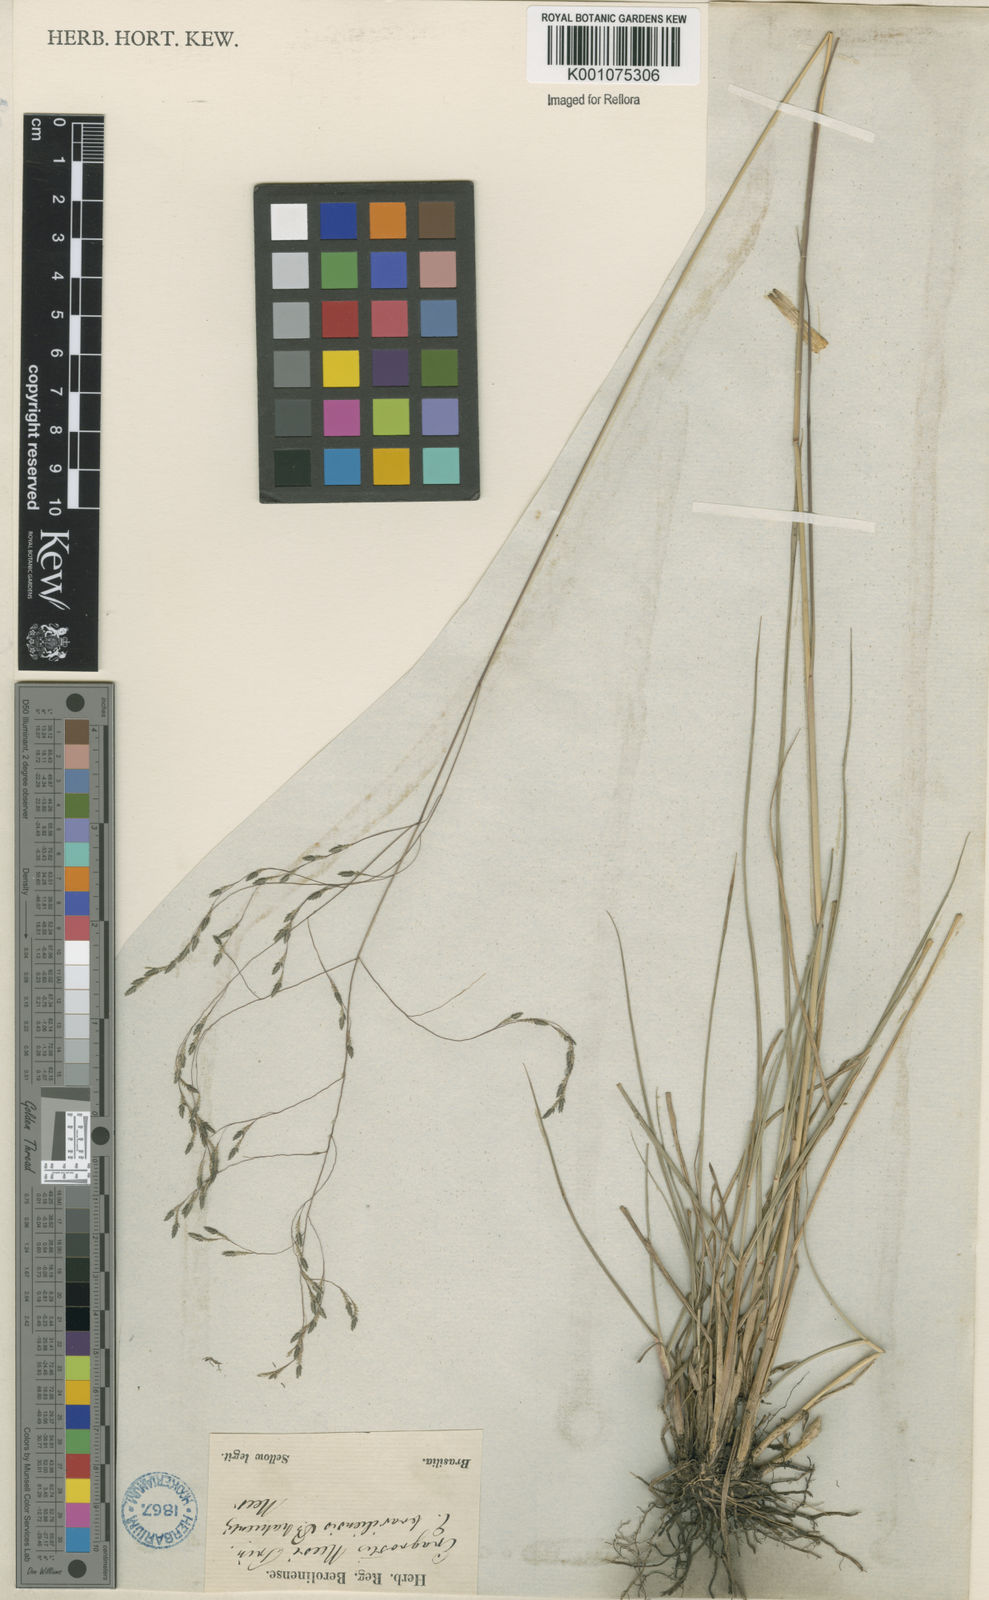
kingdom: Plantae
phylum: Tracheophyta
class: Liliopsida
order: Poales
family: Poaceae
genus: Eragrostis
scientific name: Eragrostis bahiensis
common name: Bahia lovegrass
